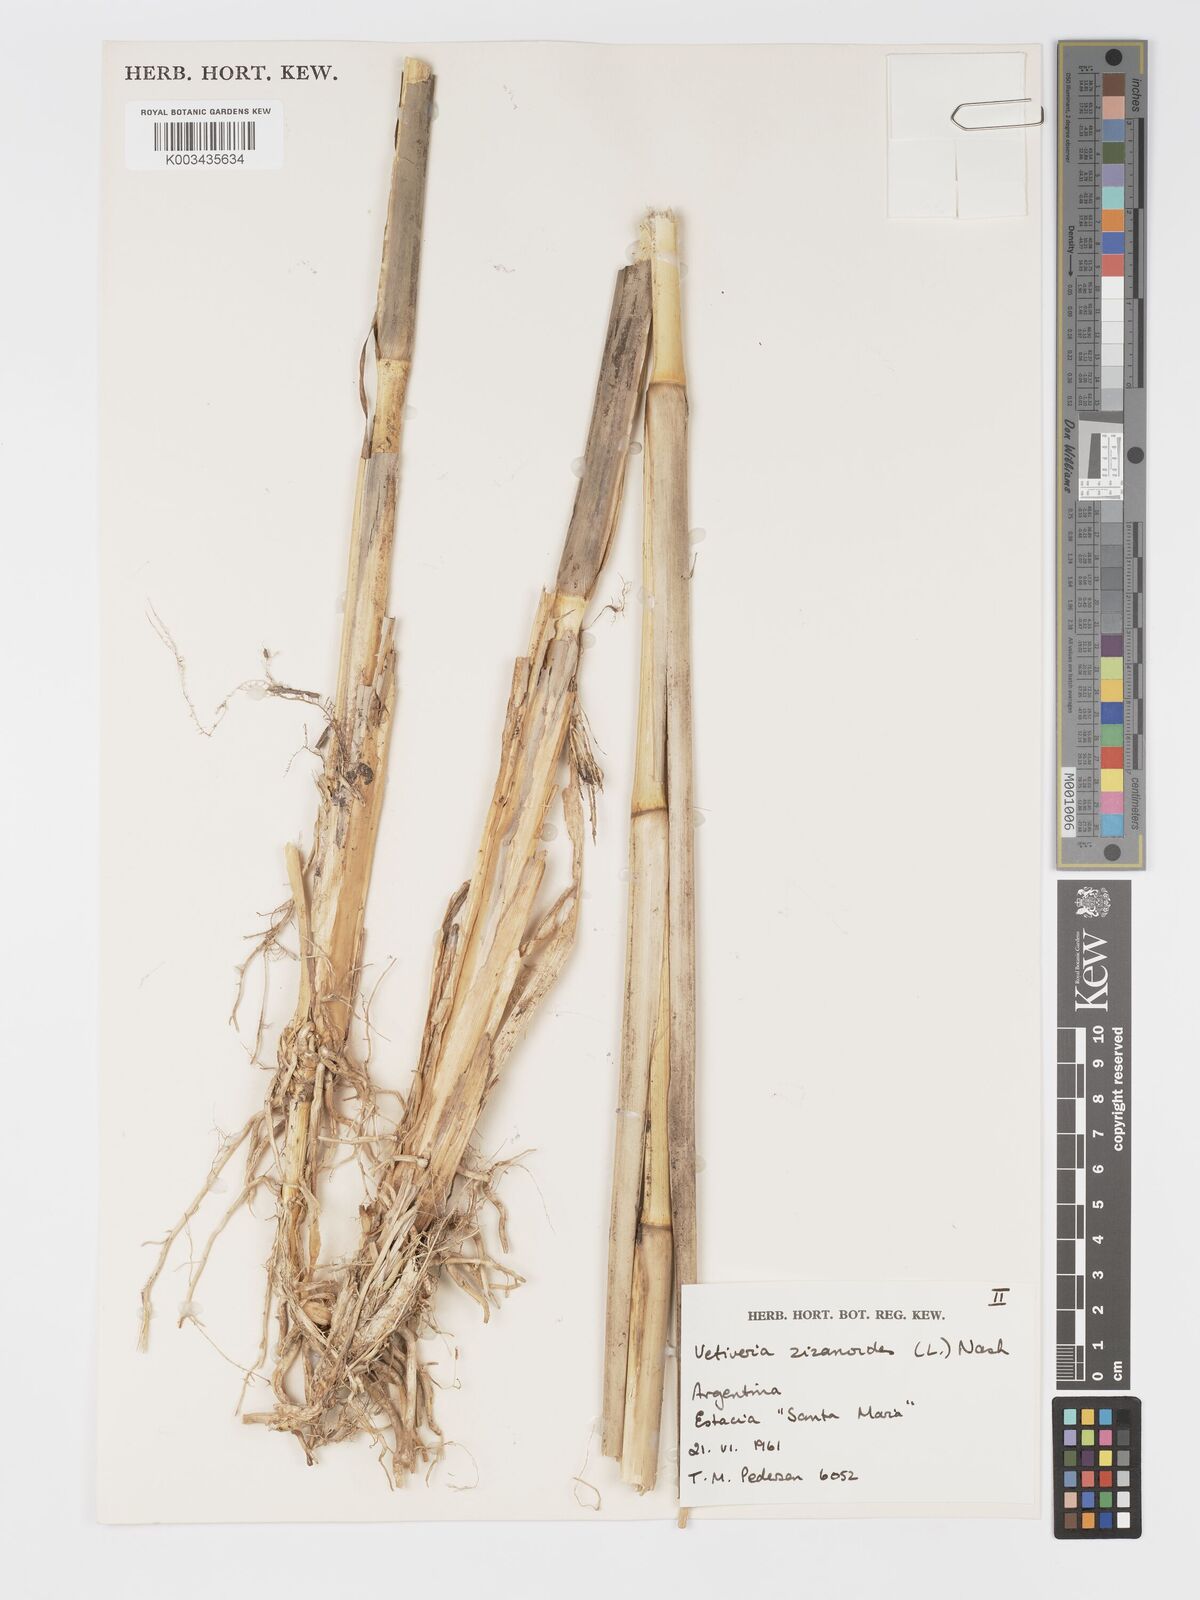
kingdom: Plantae
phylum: Tracheophyta
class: Liliopsida
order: Poales
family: Poaceae
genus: Chrysopogon
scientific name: Chrysopogon zizanioides
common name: False beardgrass
